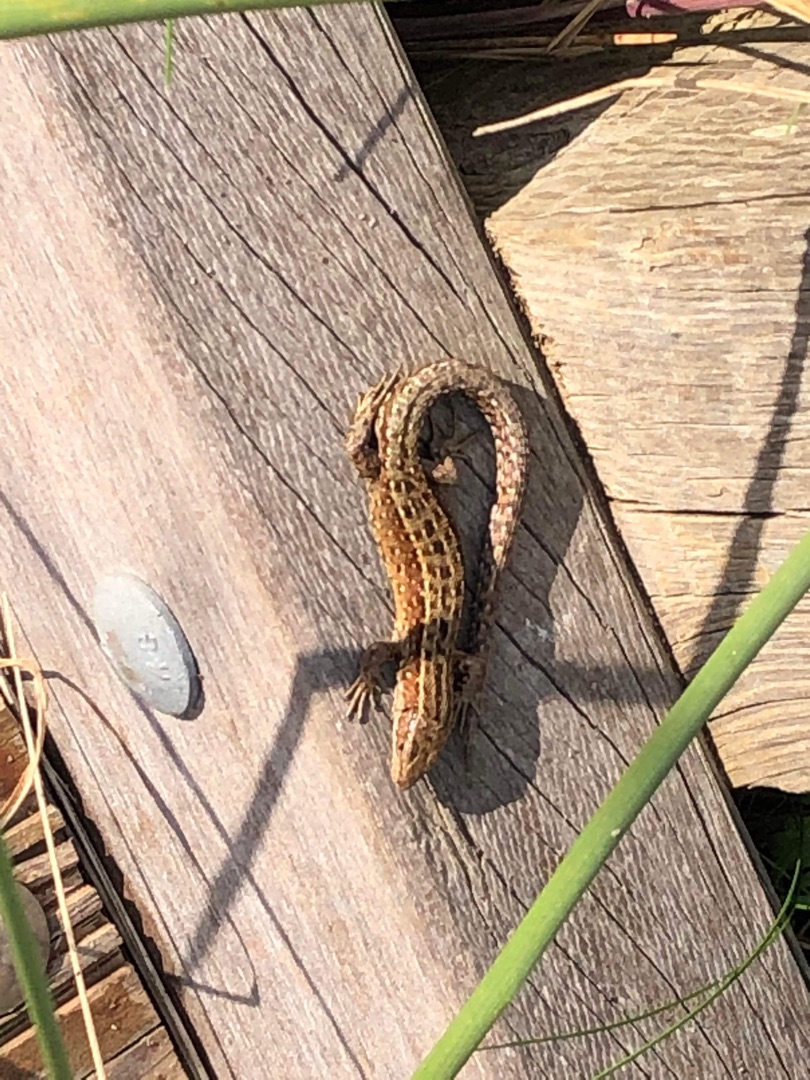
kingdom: Animalia
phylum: Chordata
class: Squamata
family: Lacertidae
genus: Zootoca
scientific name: Zootoca vivipara
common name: Skovfirben
